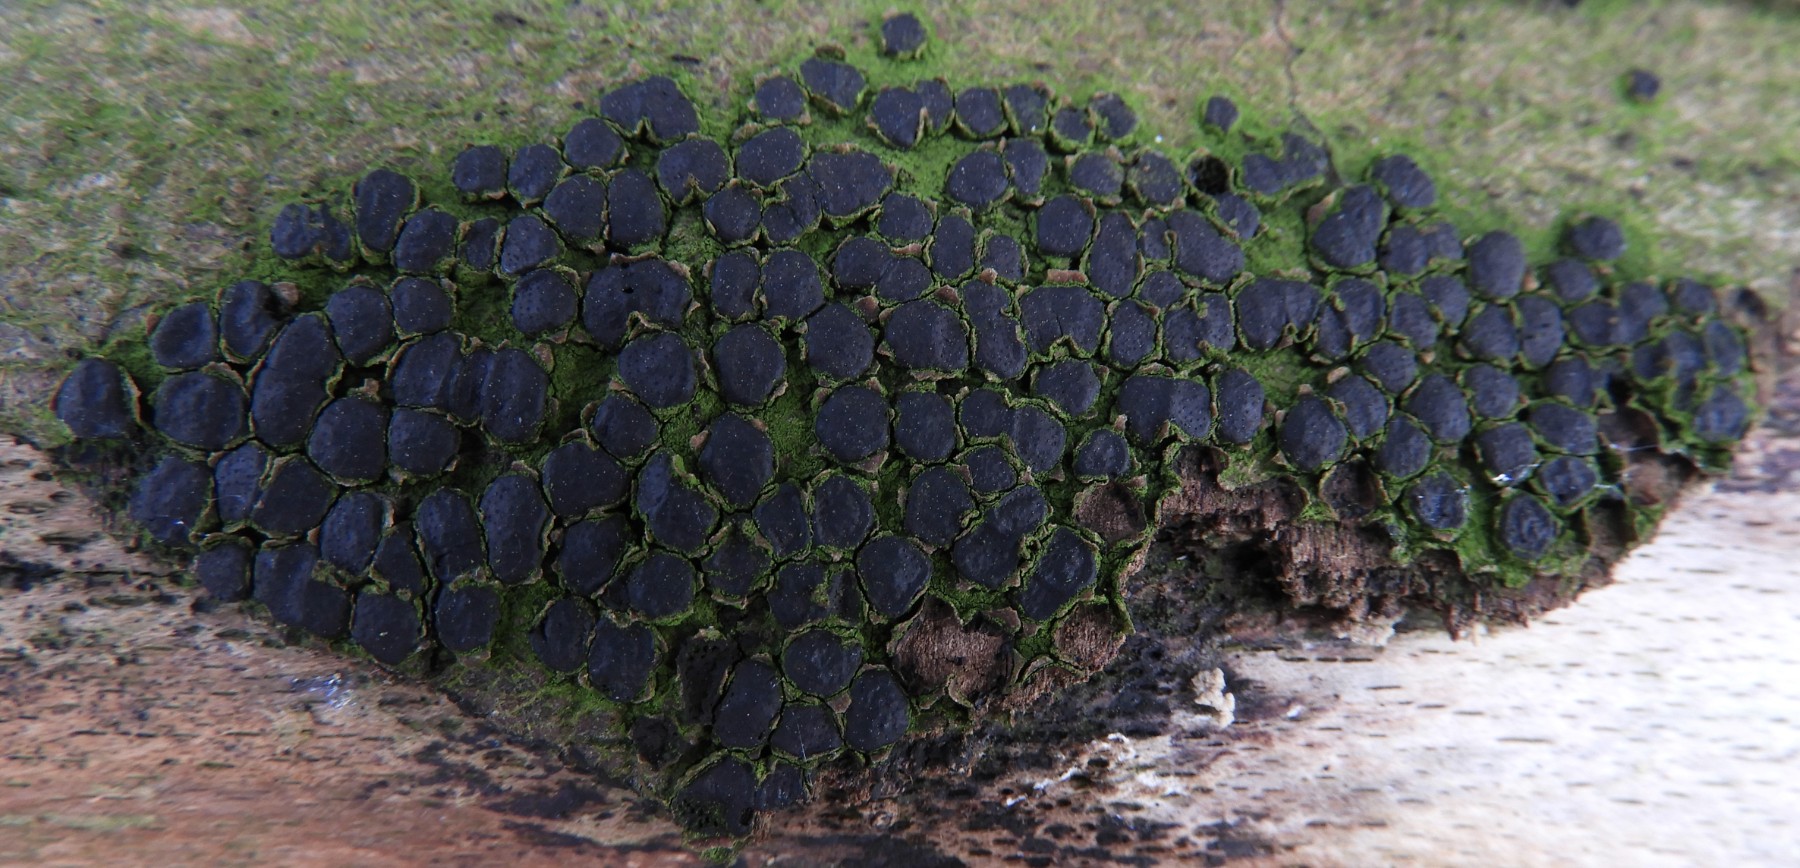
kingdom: Fungi
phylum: Ascomycota
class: Sordariomycetes
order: Xylariales
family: Diatrypaceae
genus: Diatrype
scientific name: Diatrype disciformis
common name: kant-kulskorpe
